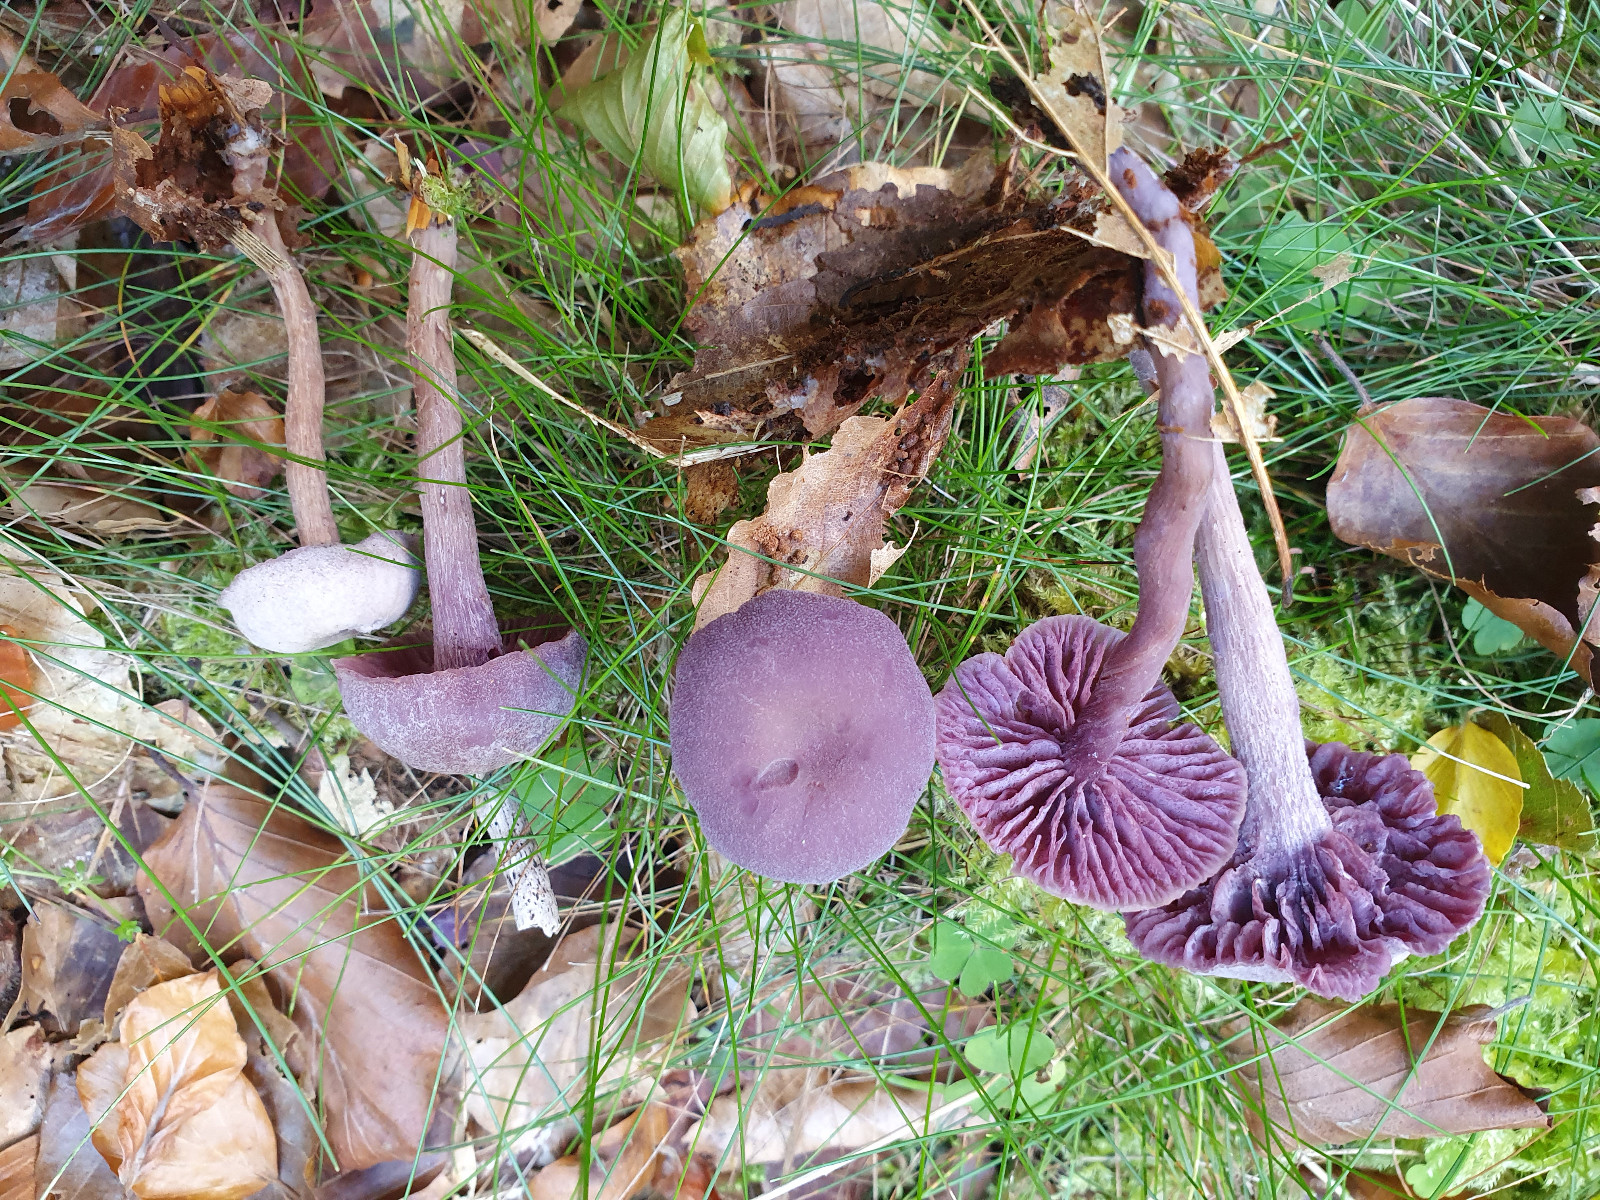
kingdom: Fungi
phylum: Basidiomycota
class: Agaricomycetes
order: Agaricales
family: Hydnangiaceae
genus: Laccaria
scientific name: Laccaria amethystina
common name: violet ametysthat
